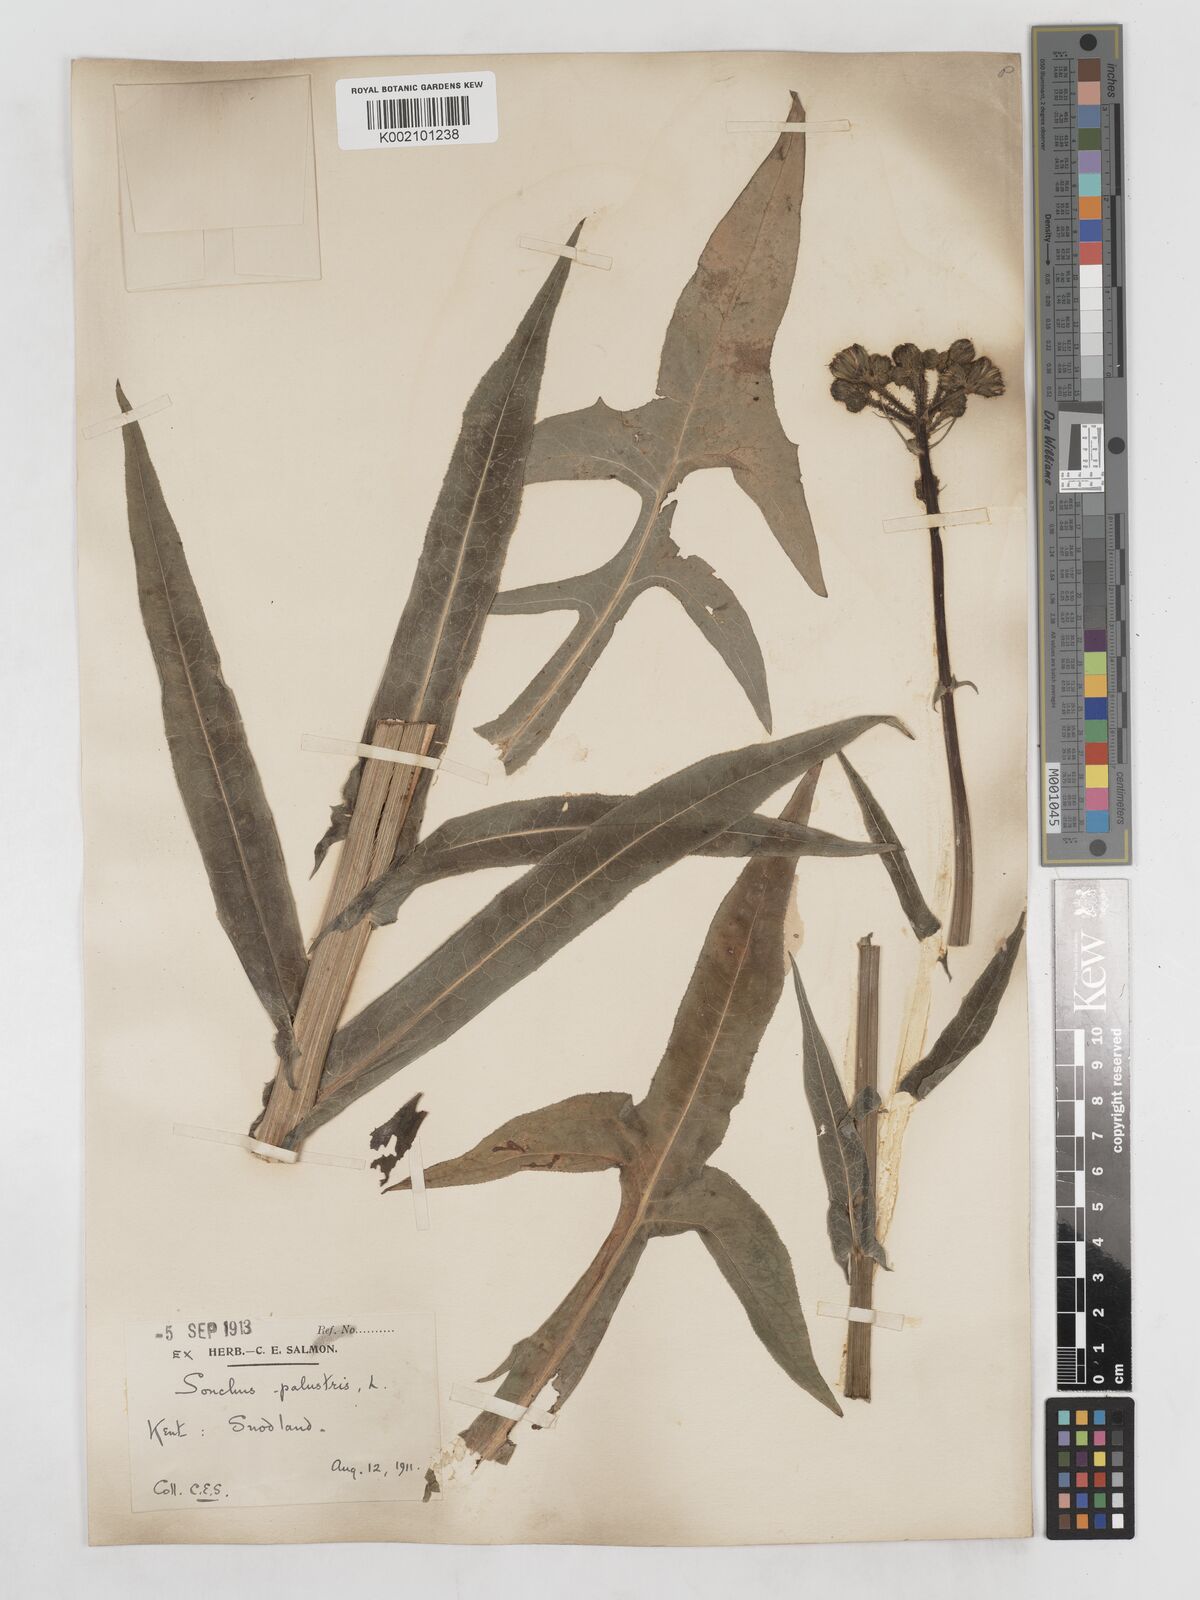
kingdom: Plantae
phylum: Tracheophyta
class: Magnoliopsida
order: Asterales
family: Asteraceae
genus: Sonchus
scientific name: Sonchus palustris
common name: Marsh sow-thistle
